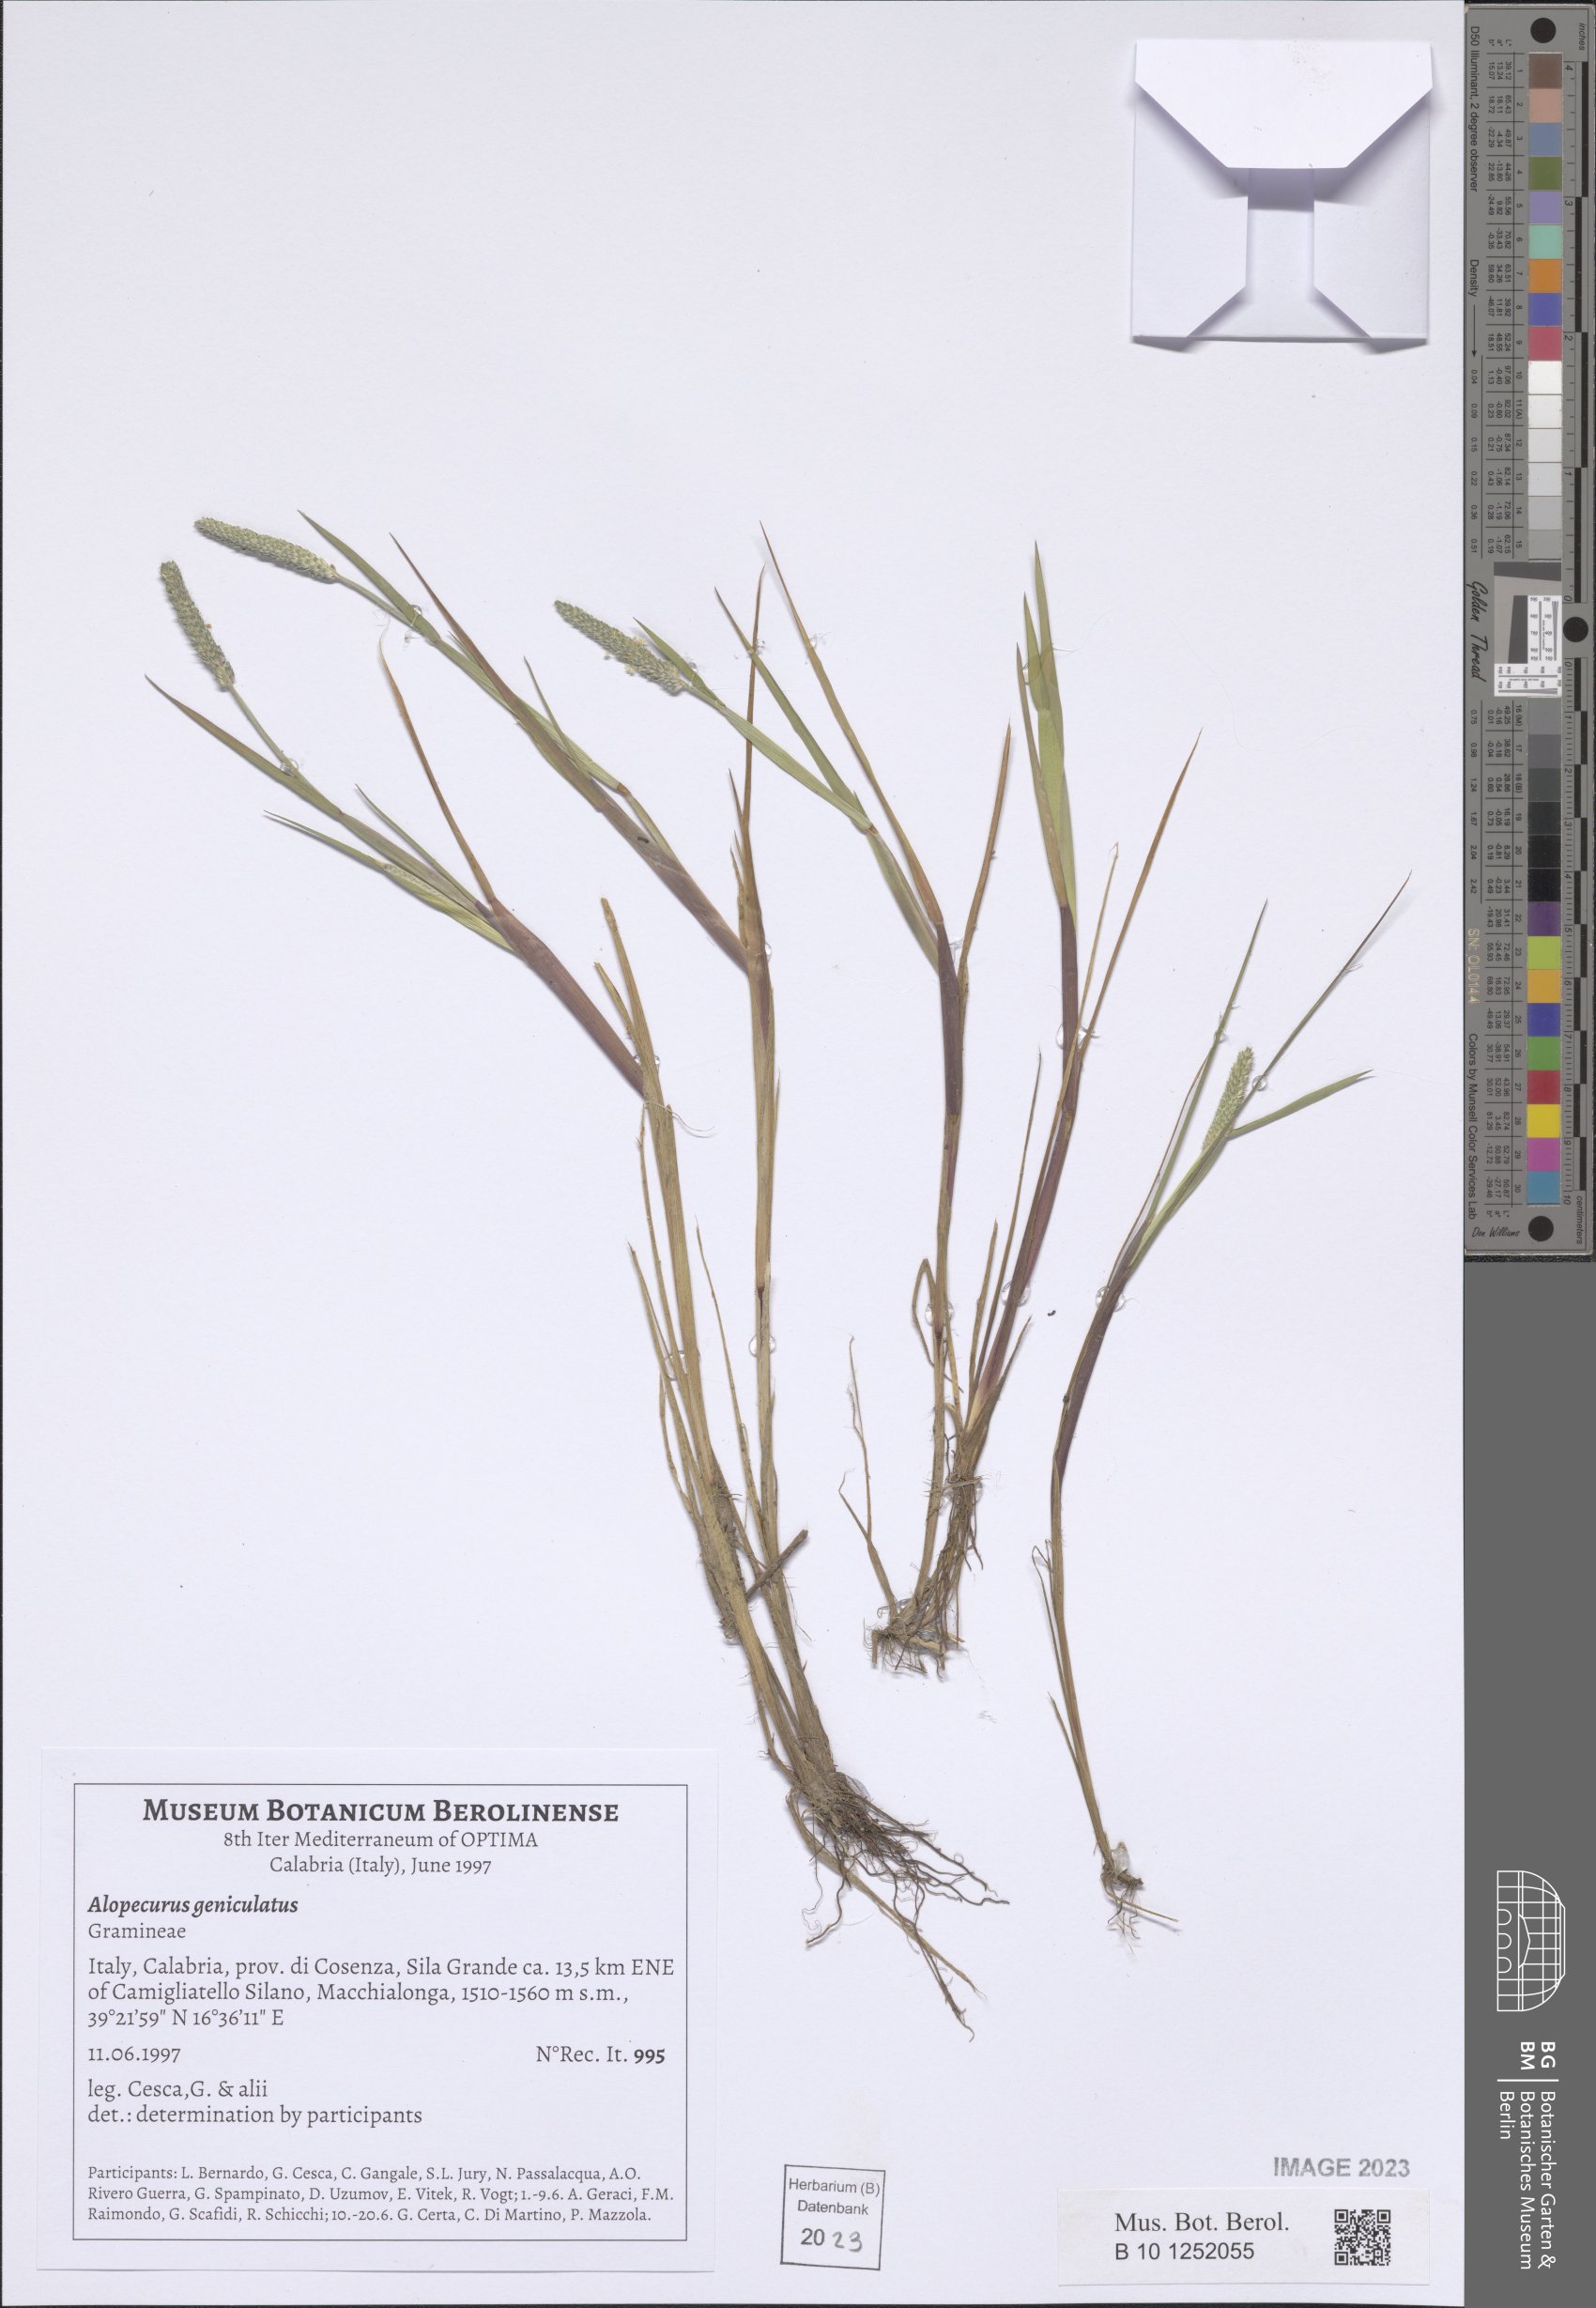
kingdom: Plantae
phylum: Tracheophyta
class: Liliopsida
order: Poales
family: Poaceae
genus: Alopecurus
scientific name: Alopecurus geniculatus
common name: Water foxtail
